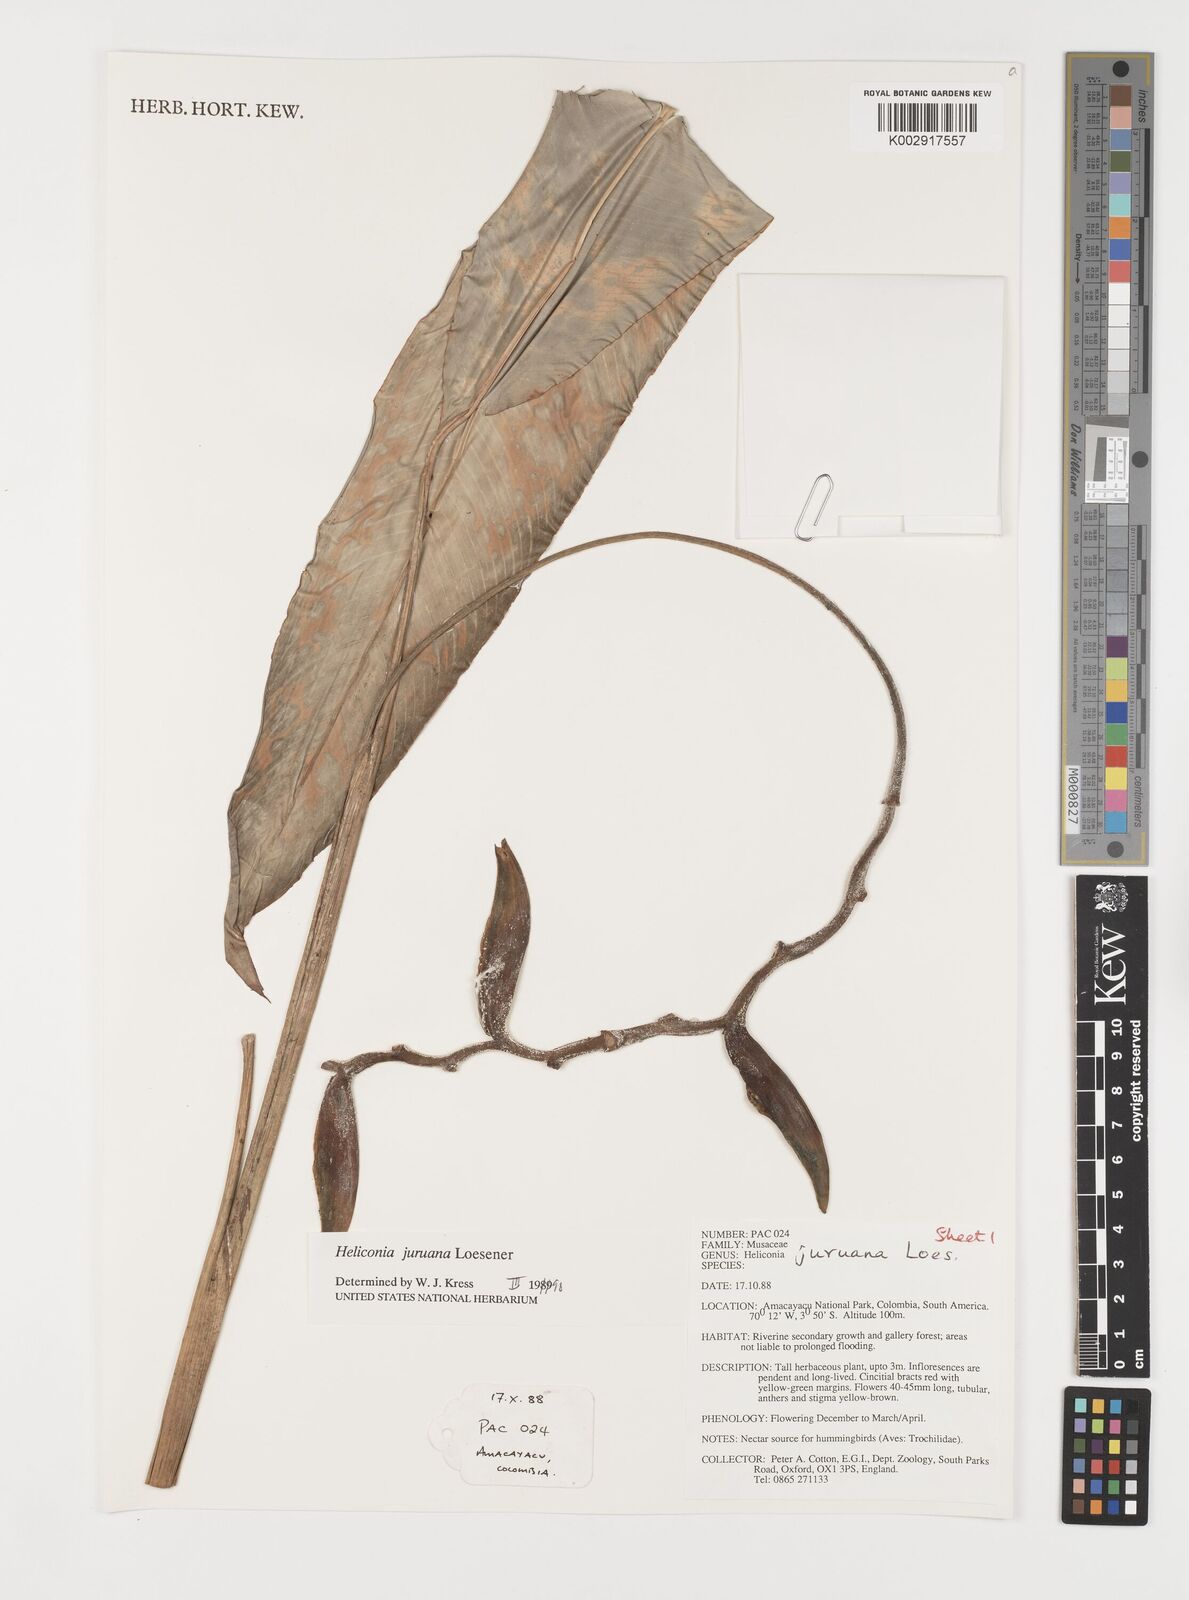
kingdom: Plantae
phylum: Tracheophyta
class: Liliopsida
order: Zingiberales
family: Heliconiaceae
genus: Heliconia
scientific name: Heliconia juruana
